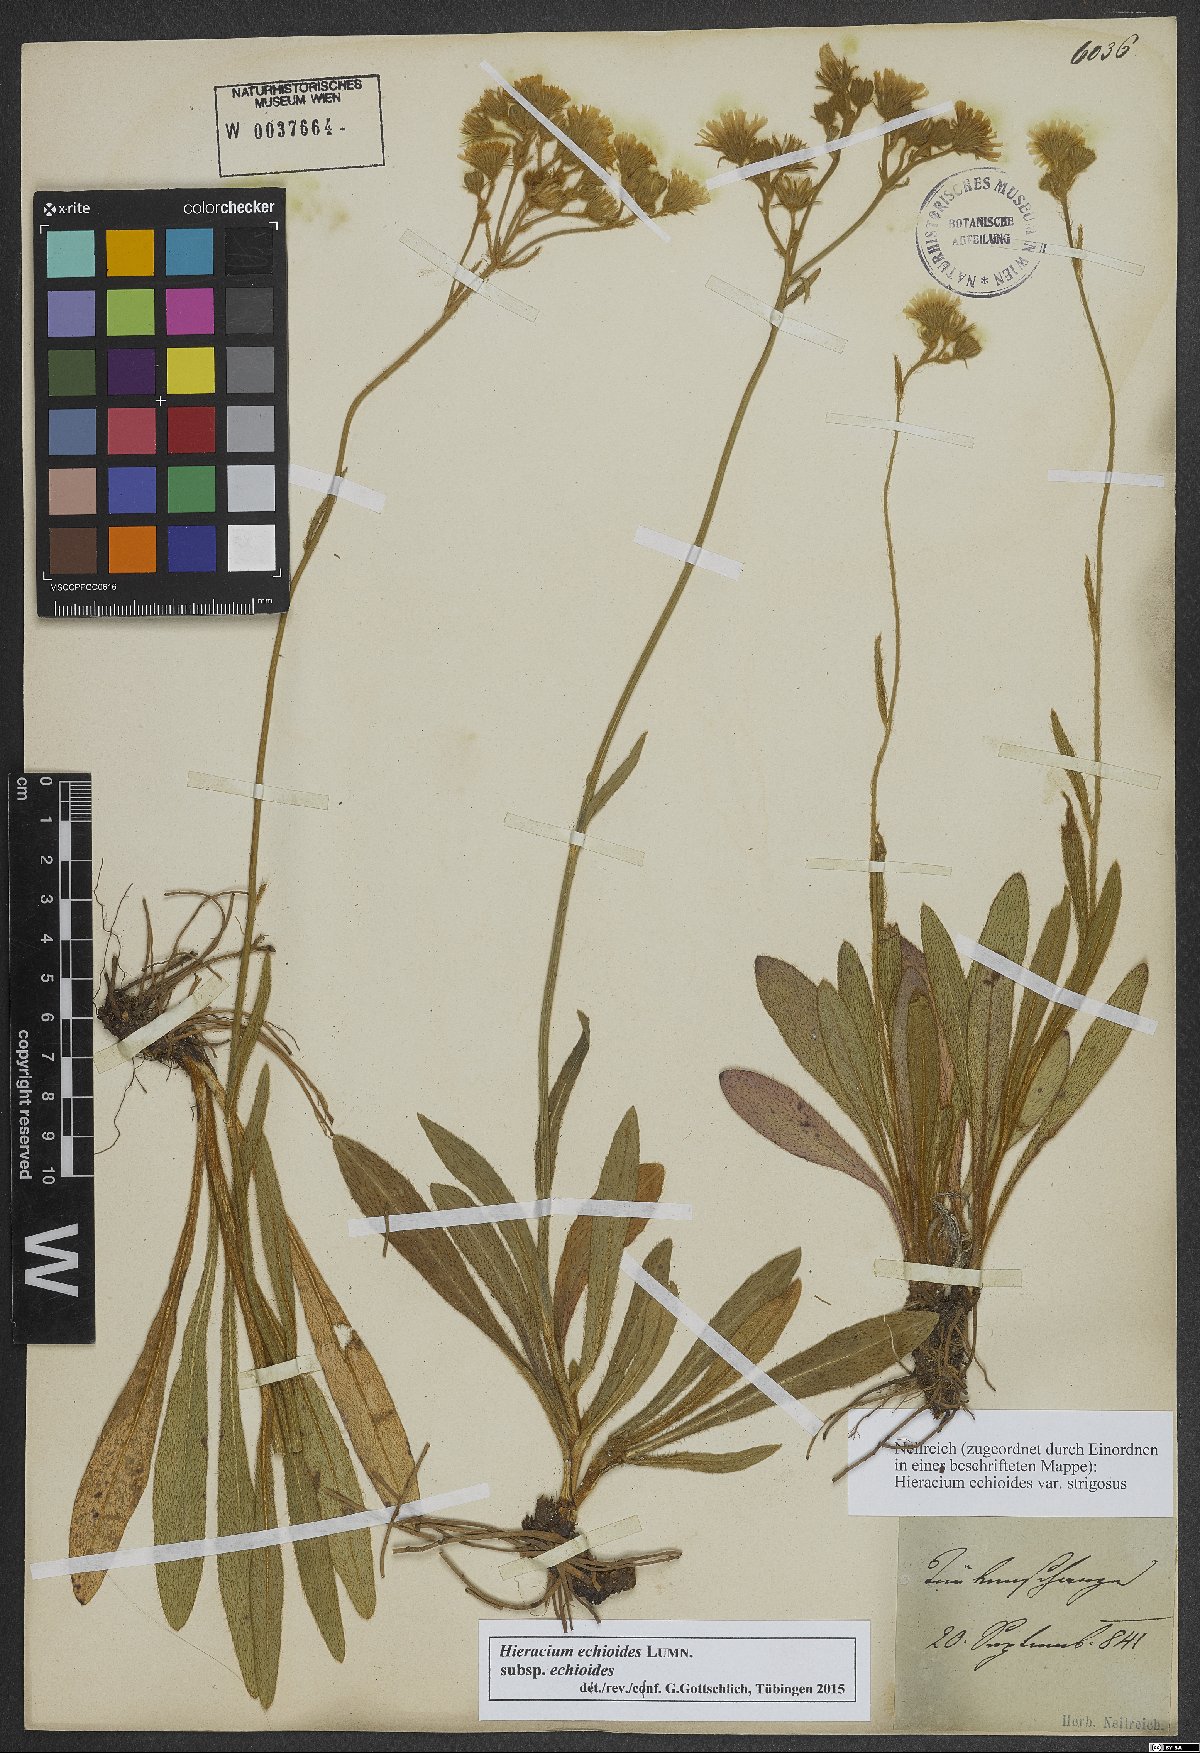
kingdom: Plantae
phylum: Tracheophyta
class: Magnoliopsida
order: Asterales
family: Asteraceae
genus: Pilosella
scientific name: Pilosella echioides
